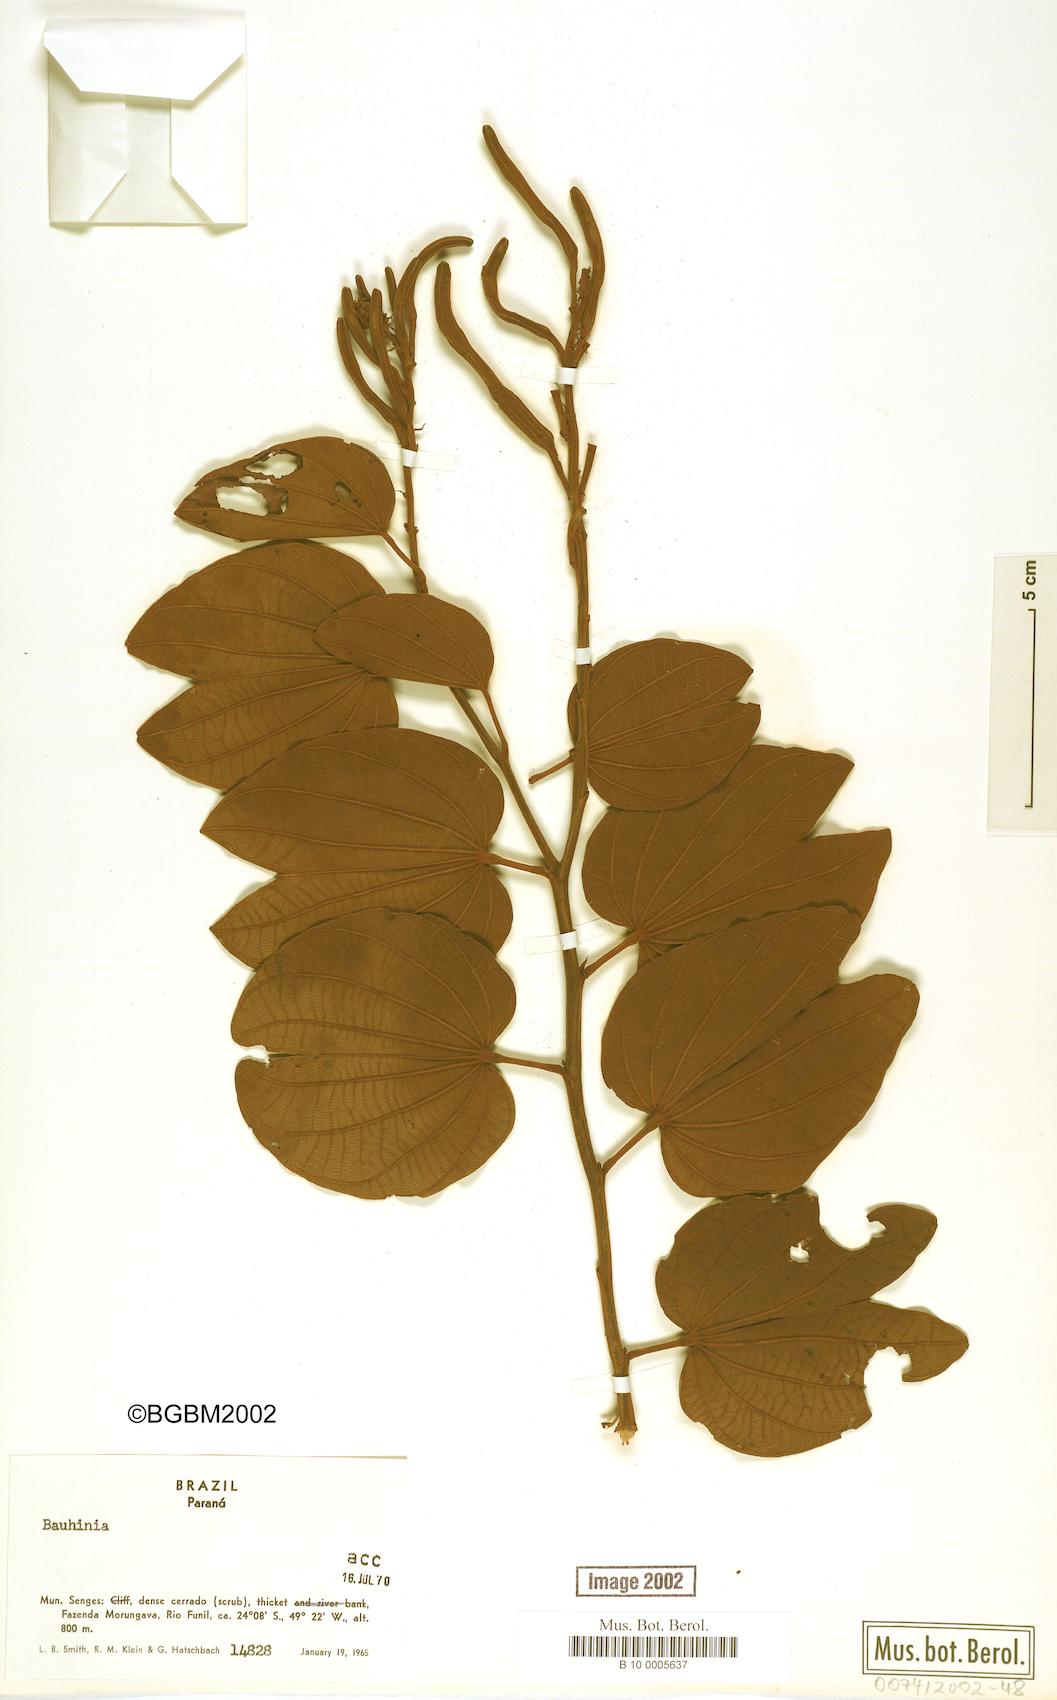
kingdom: Plantae
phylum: Tracheophyta
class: Magnoliopsida
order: Fabales
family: Fabaceae
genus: Bauhinia
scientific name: Bauhinia
